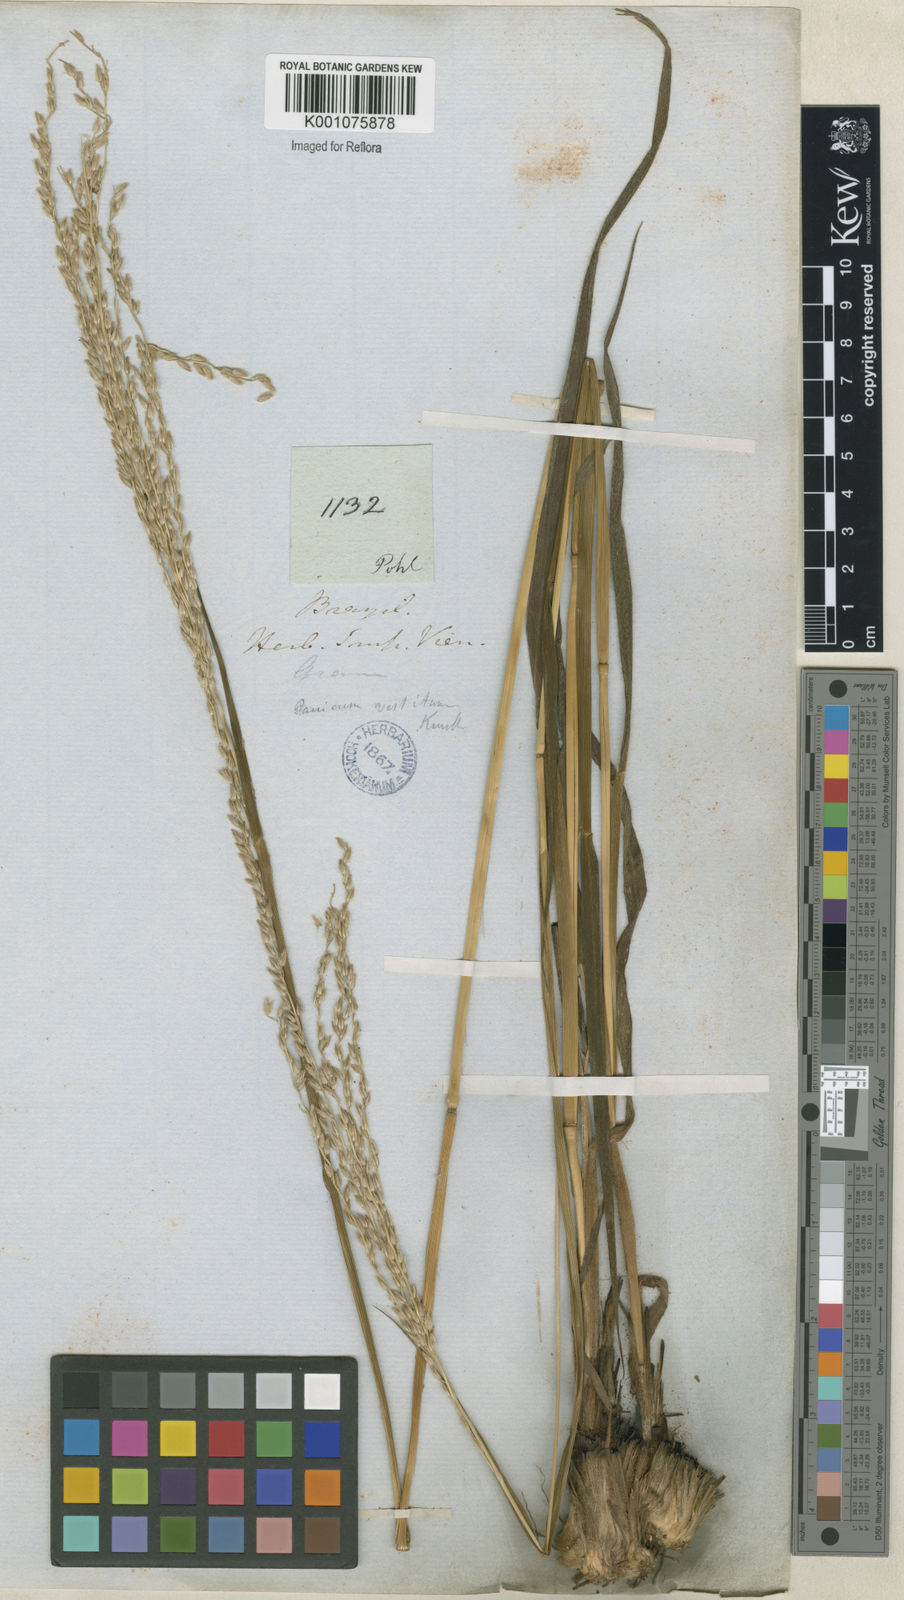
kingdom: Plantae
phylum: Tracheophyta
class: Liliopsida
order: Poales
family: Poaceae
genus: Digitaria
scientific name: Digitaria neesiana
